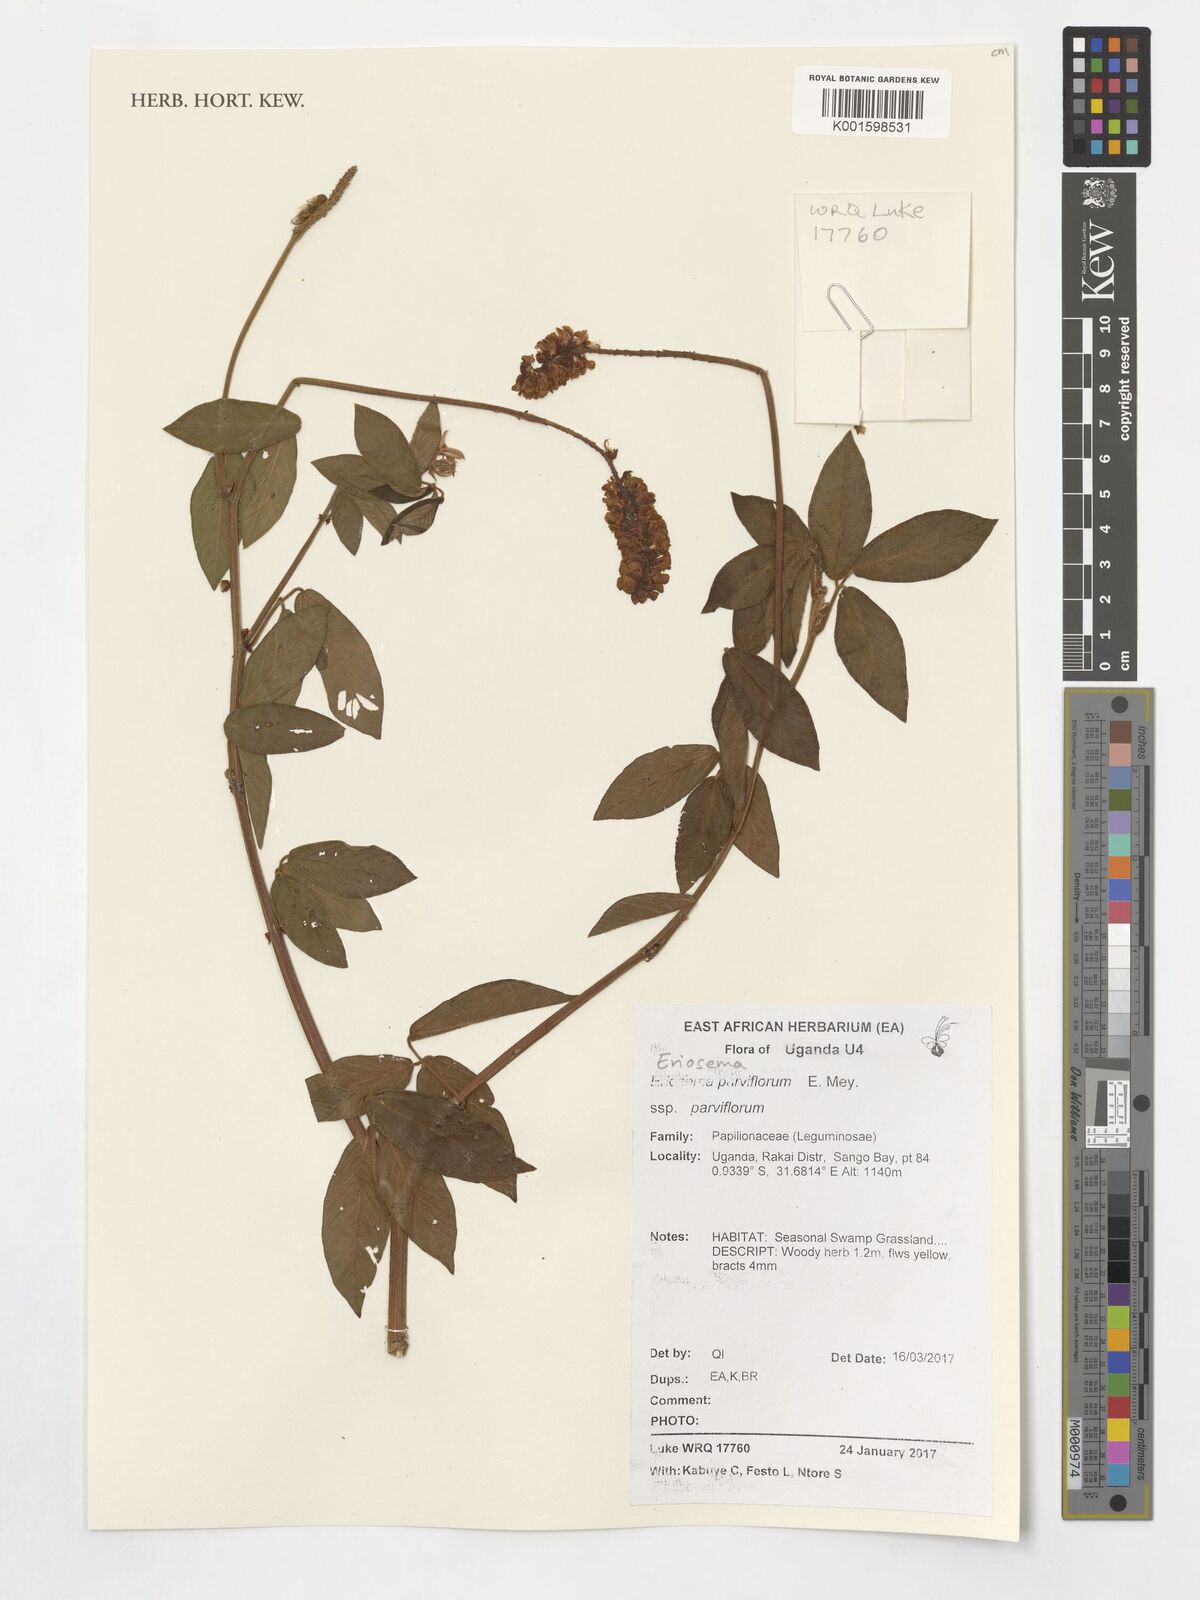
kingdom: Plantae
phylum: Tracheophyta
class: Magnoliopsida
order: Fabales
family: Fabaceae
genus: Eriosema
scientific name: Eriosema parviflorum
